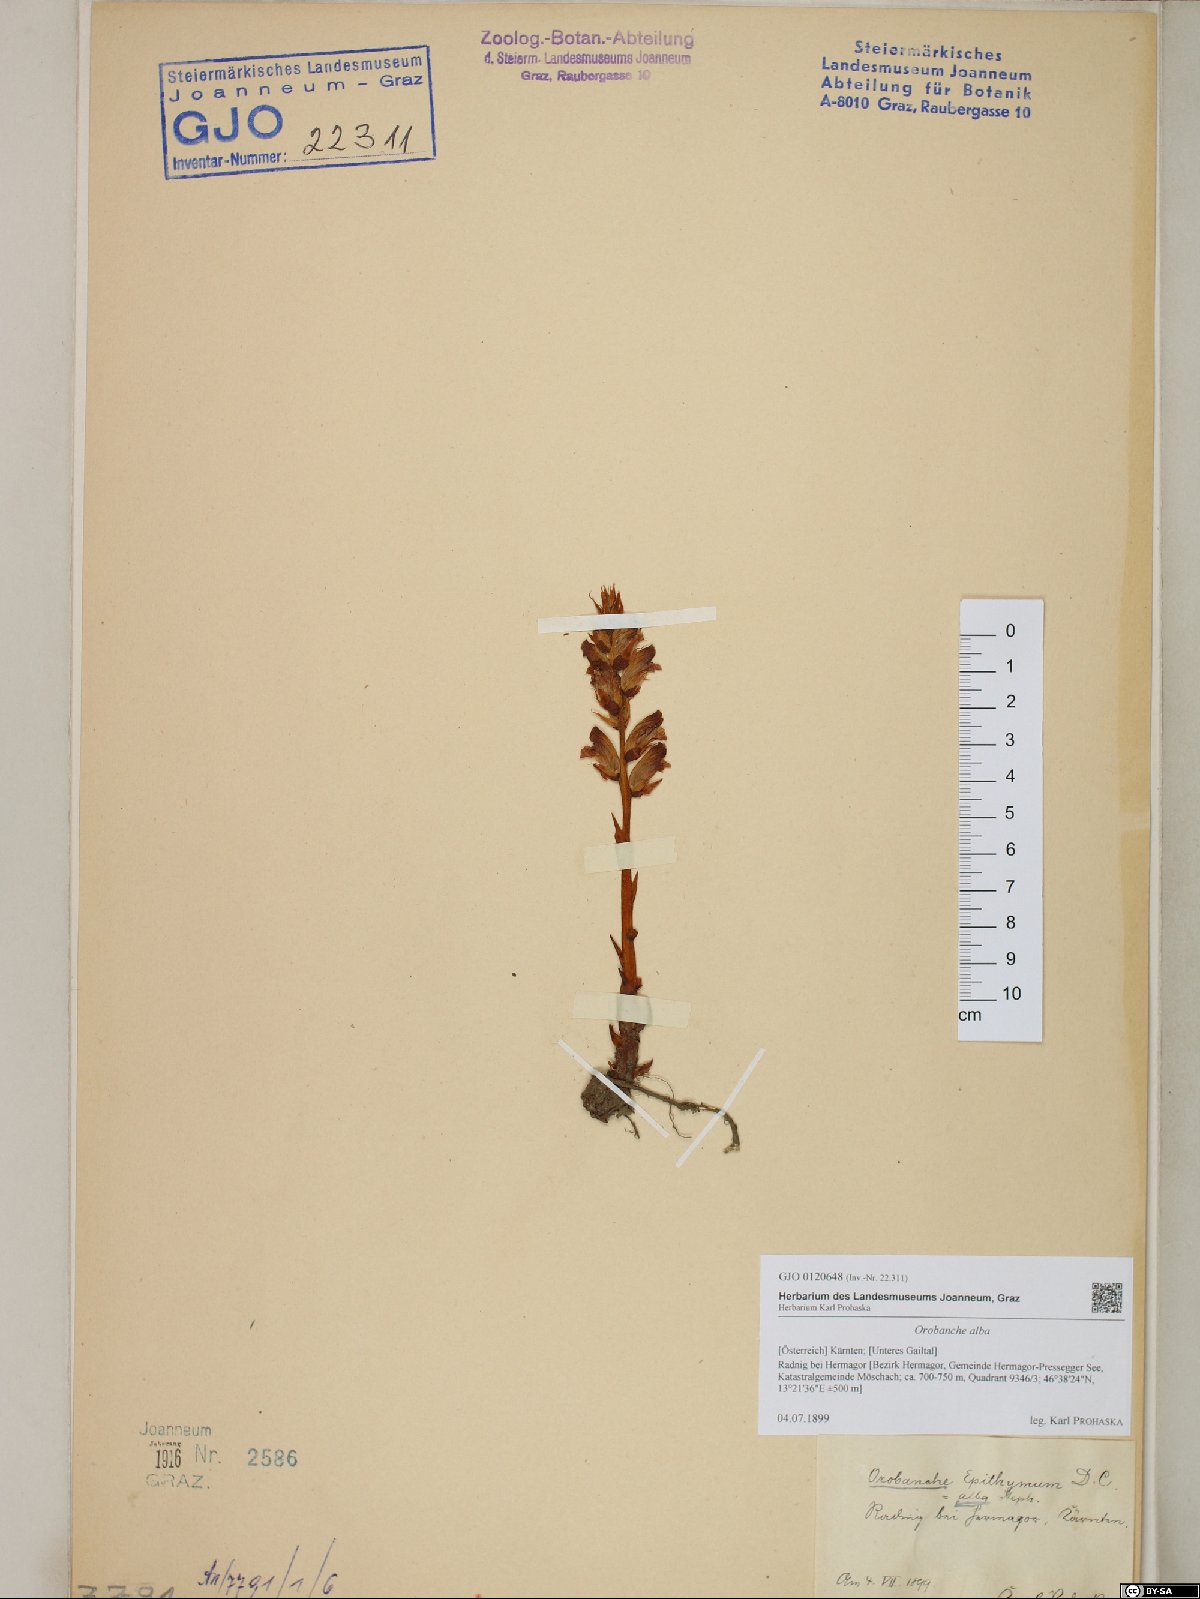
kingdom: Plantae
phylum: Tracheophyta
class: Magnoliopsida
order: Lamiales
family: Orobanchaceae
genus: Orobanche
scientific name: Orobanche alba
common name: Thyme broomrape
